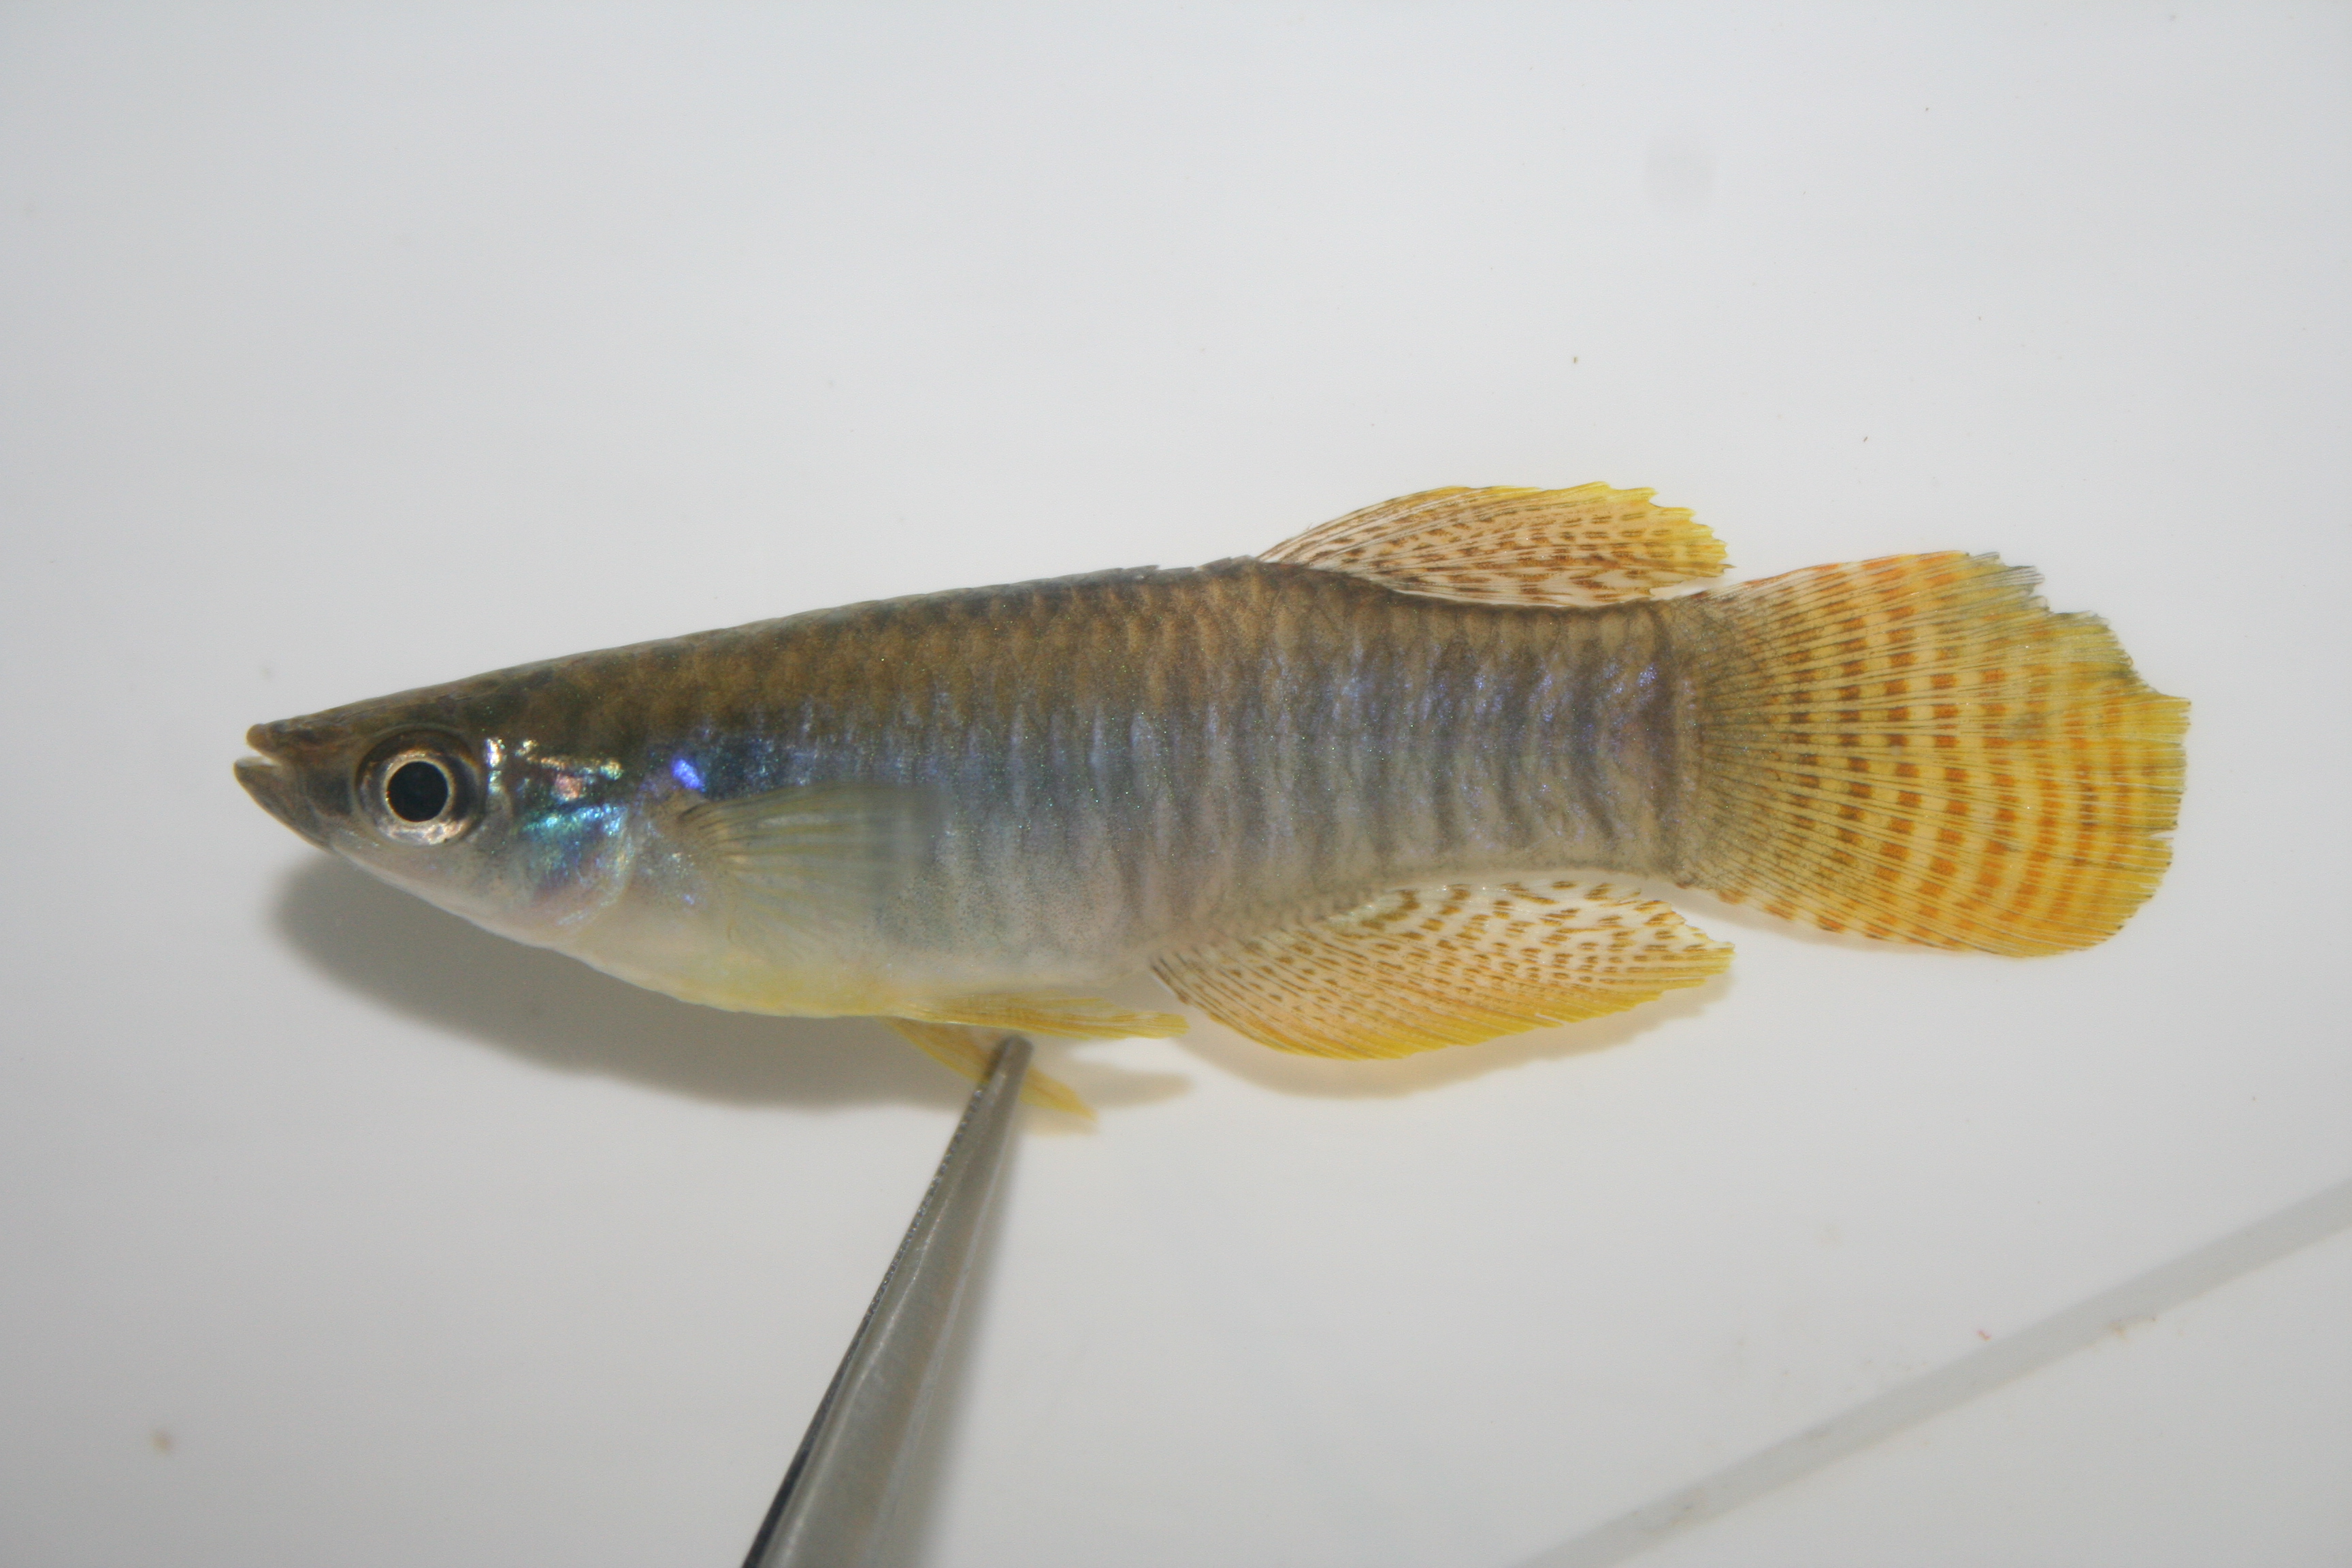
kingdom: Animalia
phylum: Chordata
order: Cyprinodontiformes
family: Poeciliidae
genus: Aplocheilichthys
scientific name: Aplocheilichthys spilauchen
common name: Banded lampeye
